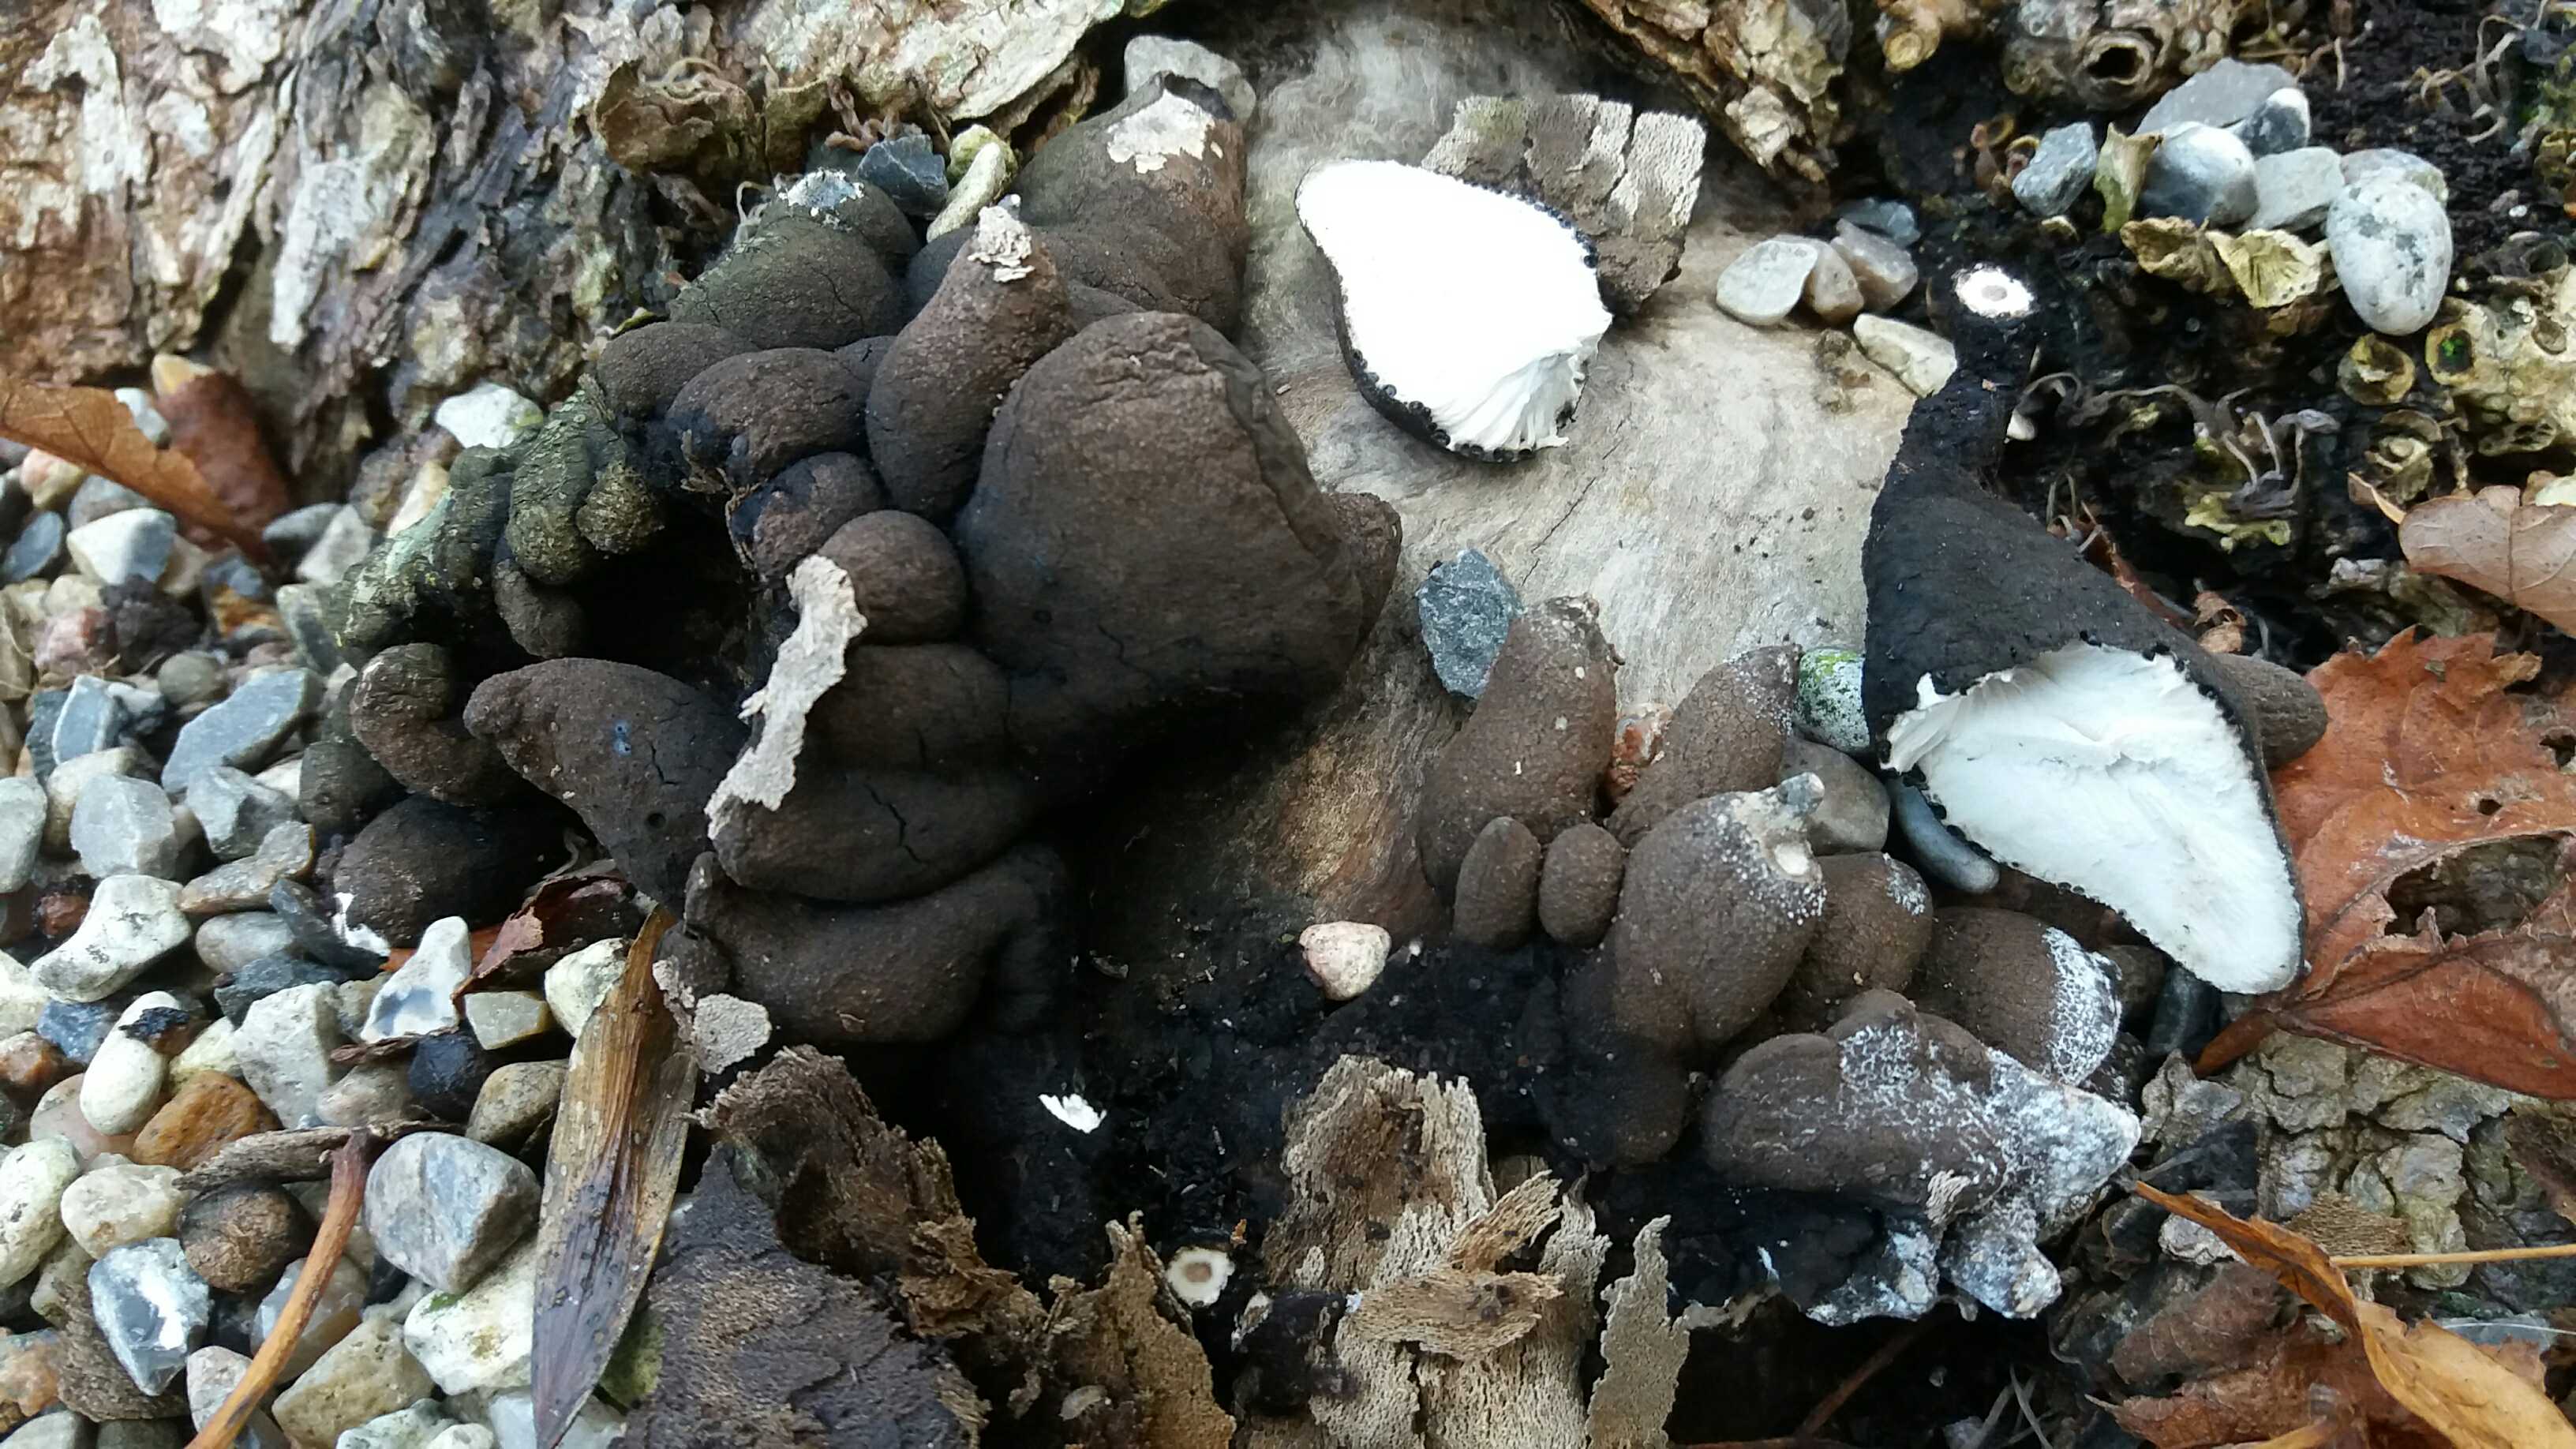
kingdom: Fungi
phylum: Ascomycota
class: Sordariomycetes
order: Xylariales
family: Xylariaceae
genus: Xylaria
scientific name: Xylaria polymorpha
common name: kølle-stødsvamp
